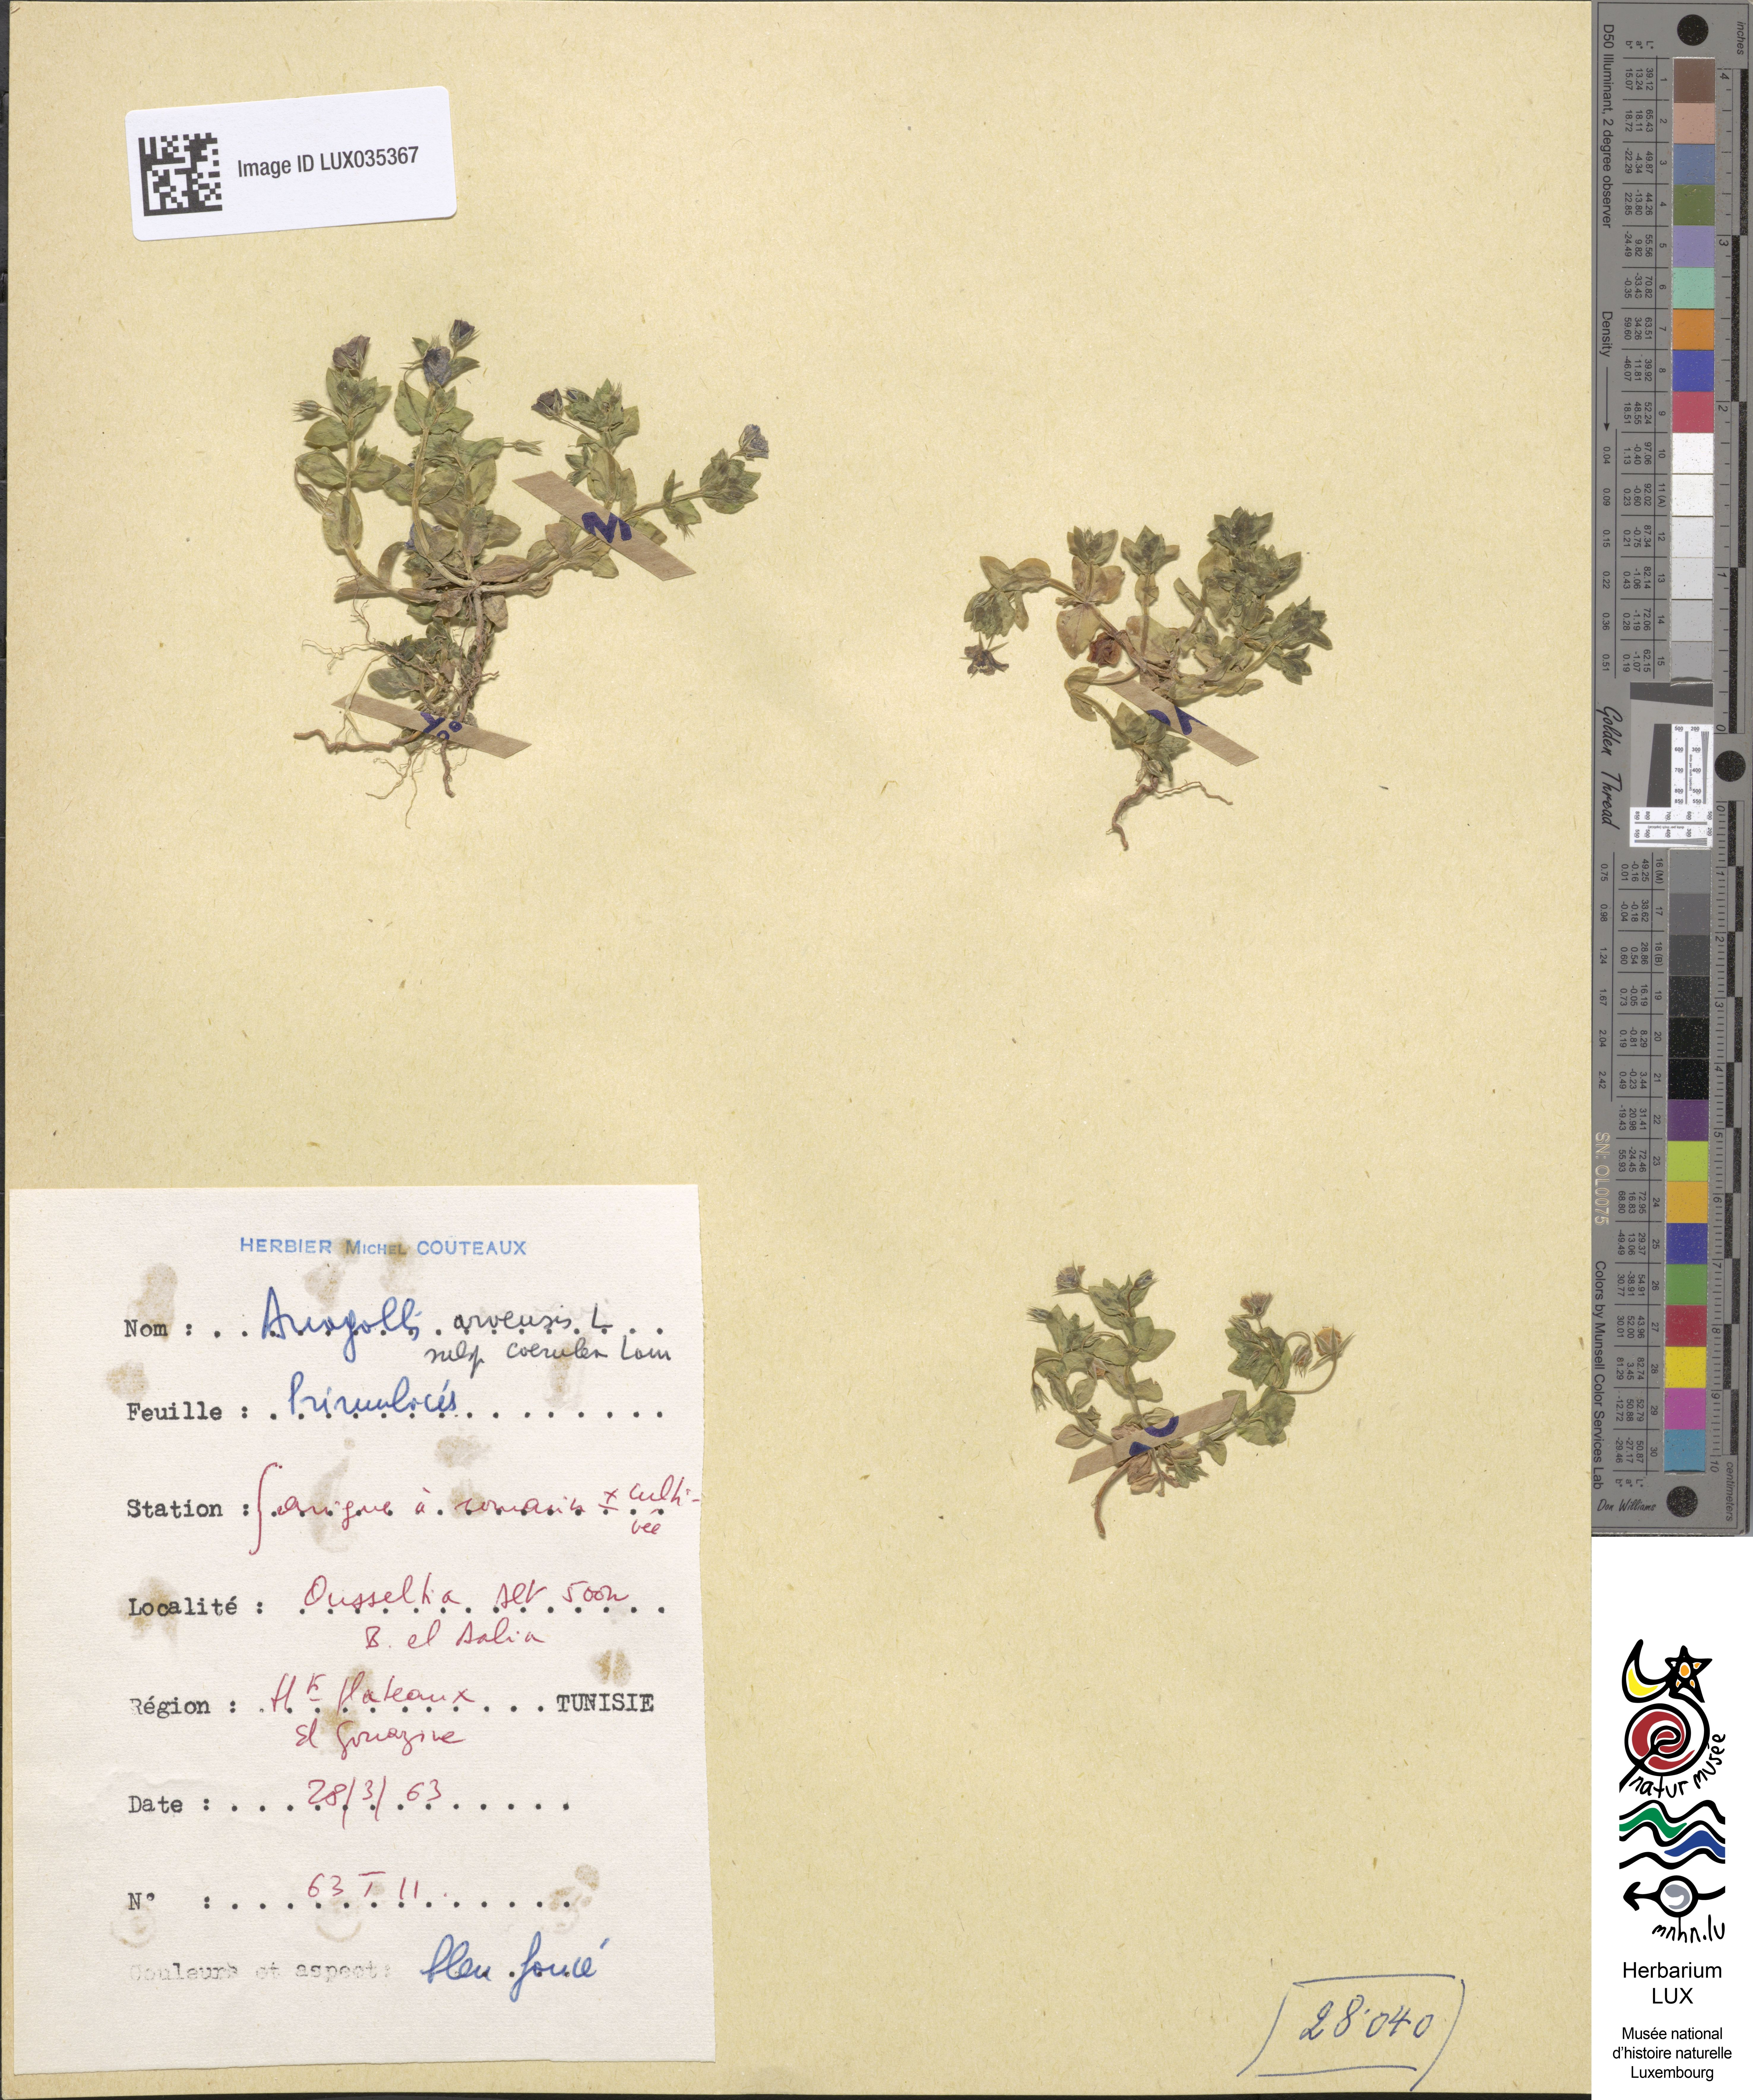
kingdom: Plantae
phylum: Tracheophyta
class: Magnoliopsida
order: Ericales
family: Primulaceae
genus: Lysimachia
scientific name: Lysimachia foemina
